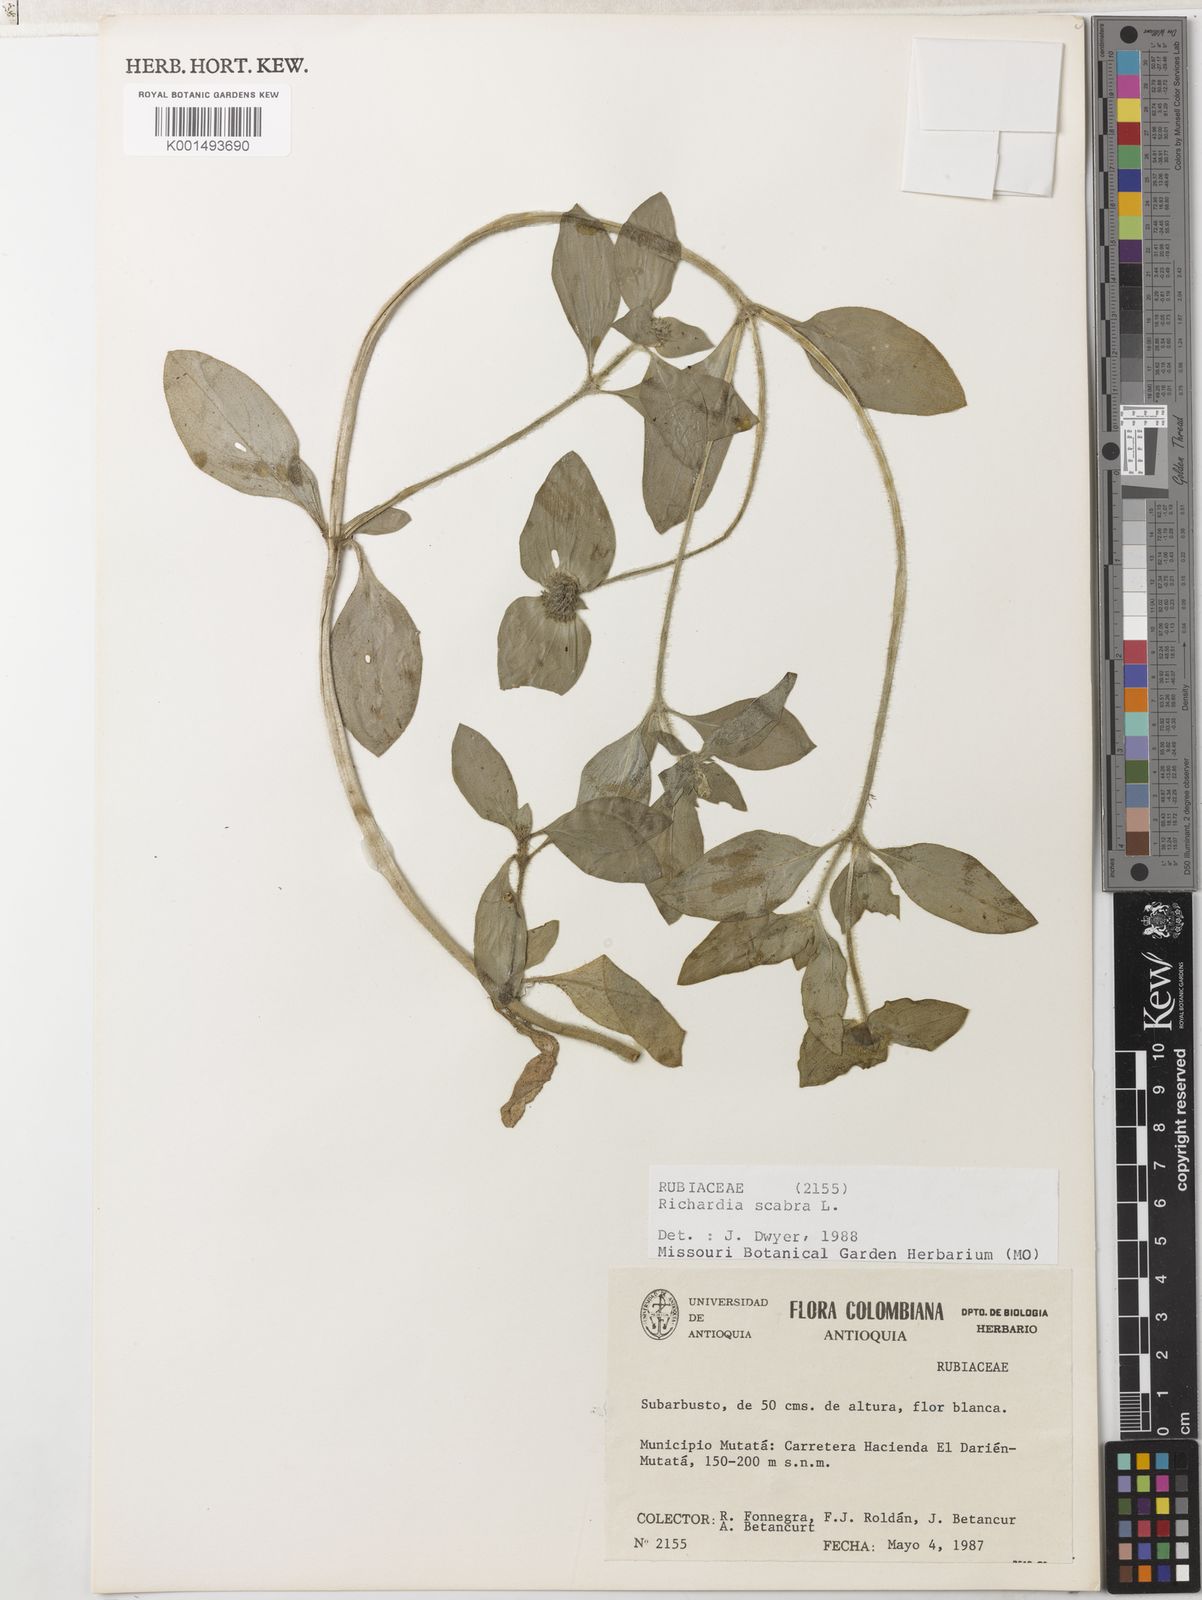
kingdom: Plantae
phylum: Tracheophyta
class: Magnoliopsida
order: Gentianales
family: Rubiaceae
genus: Richardia
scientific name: Richardia scabra
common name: Rough mexican clover
